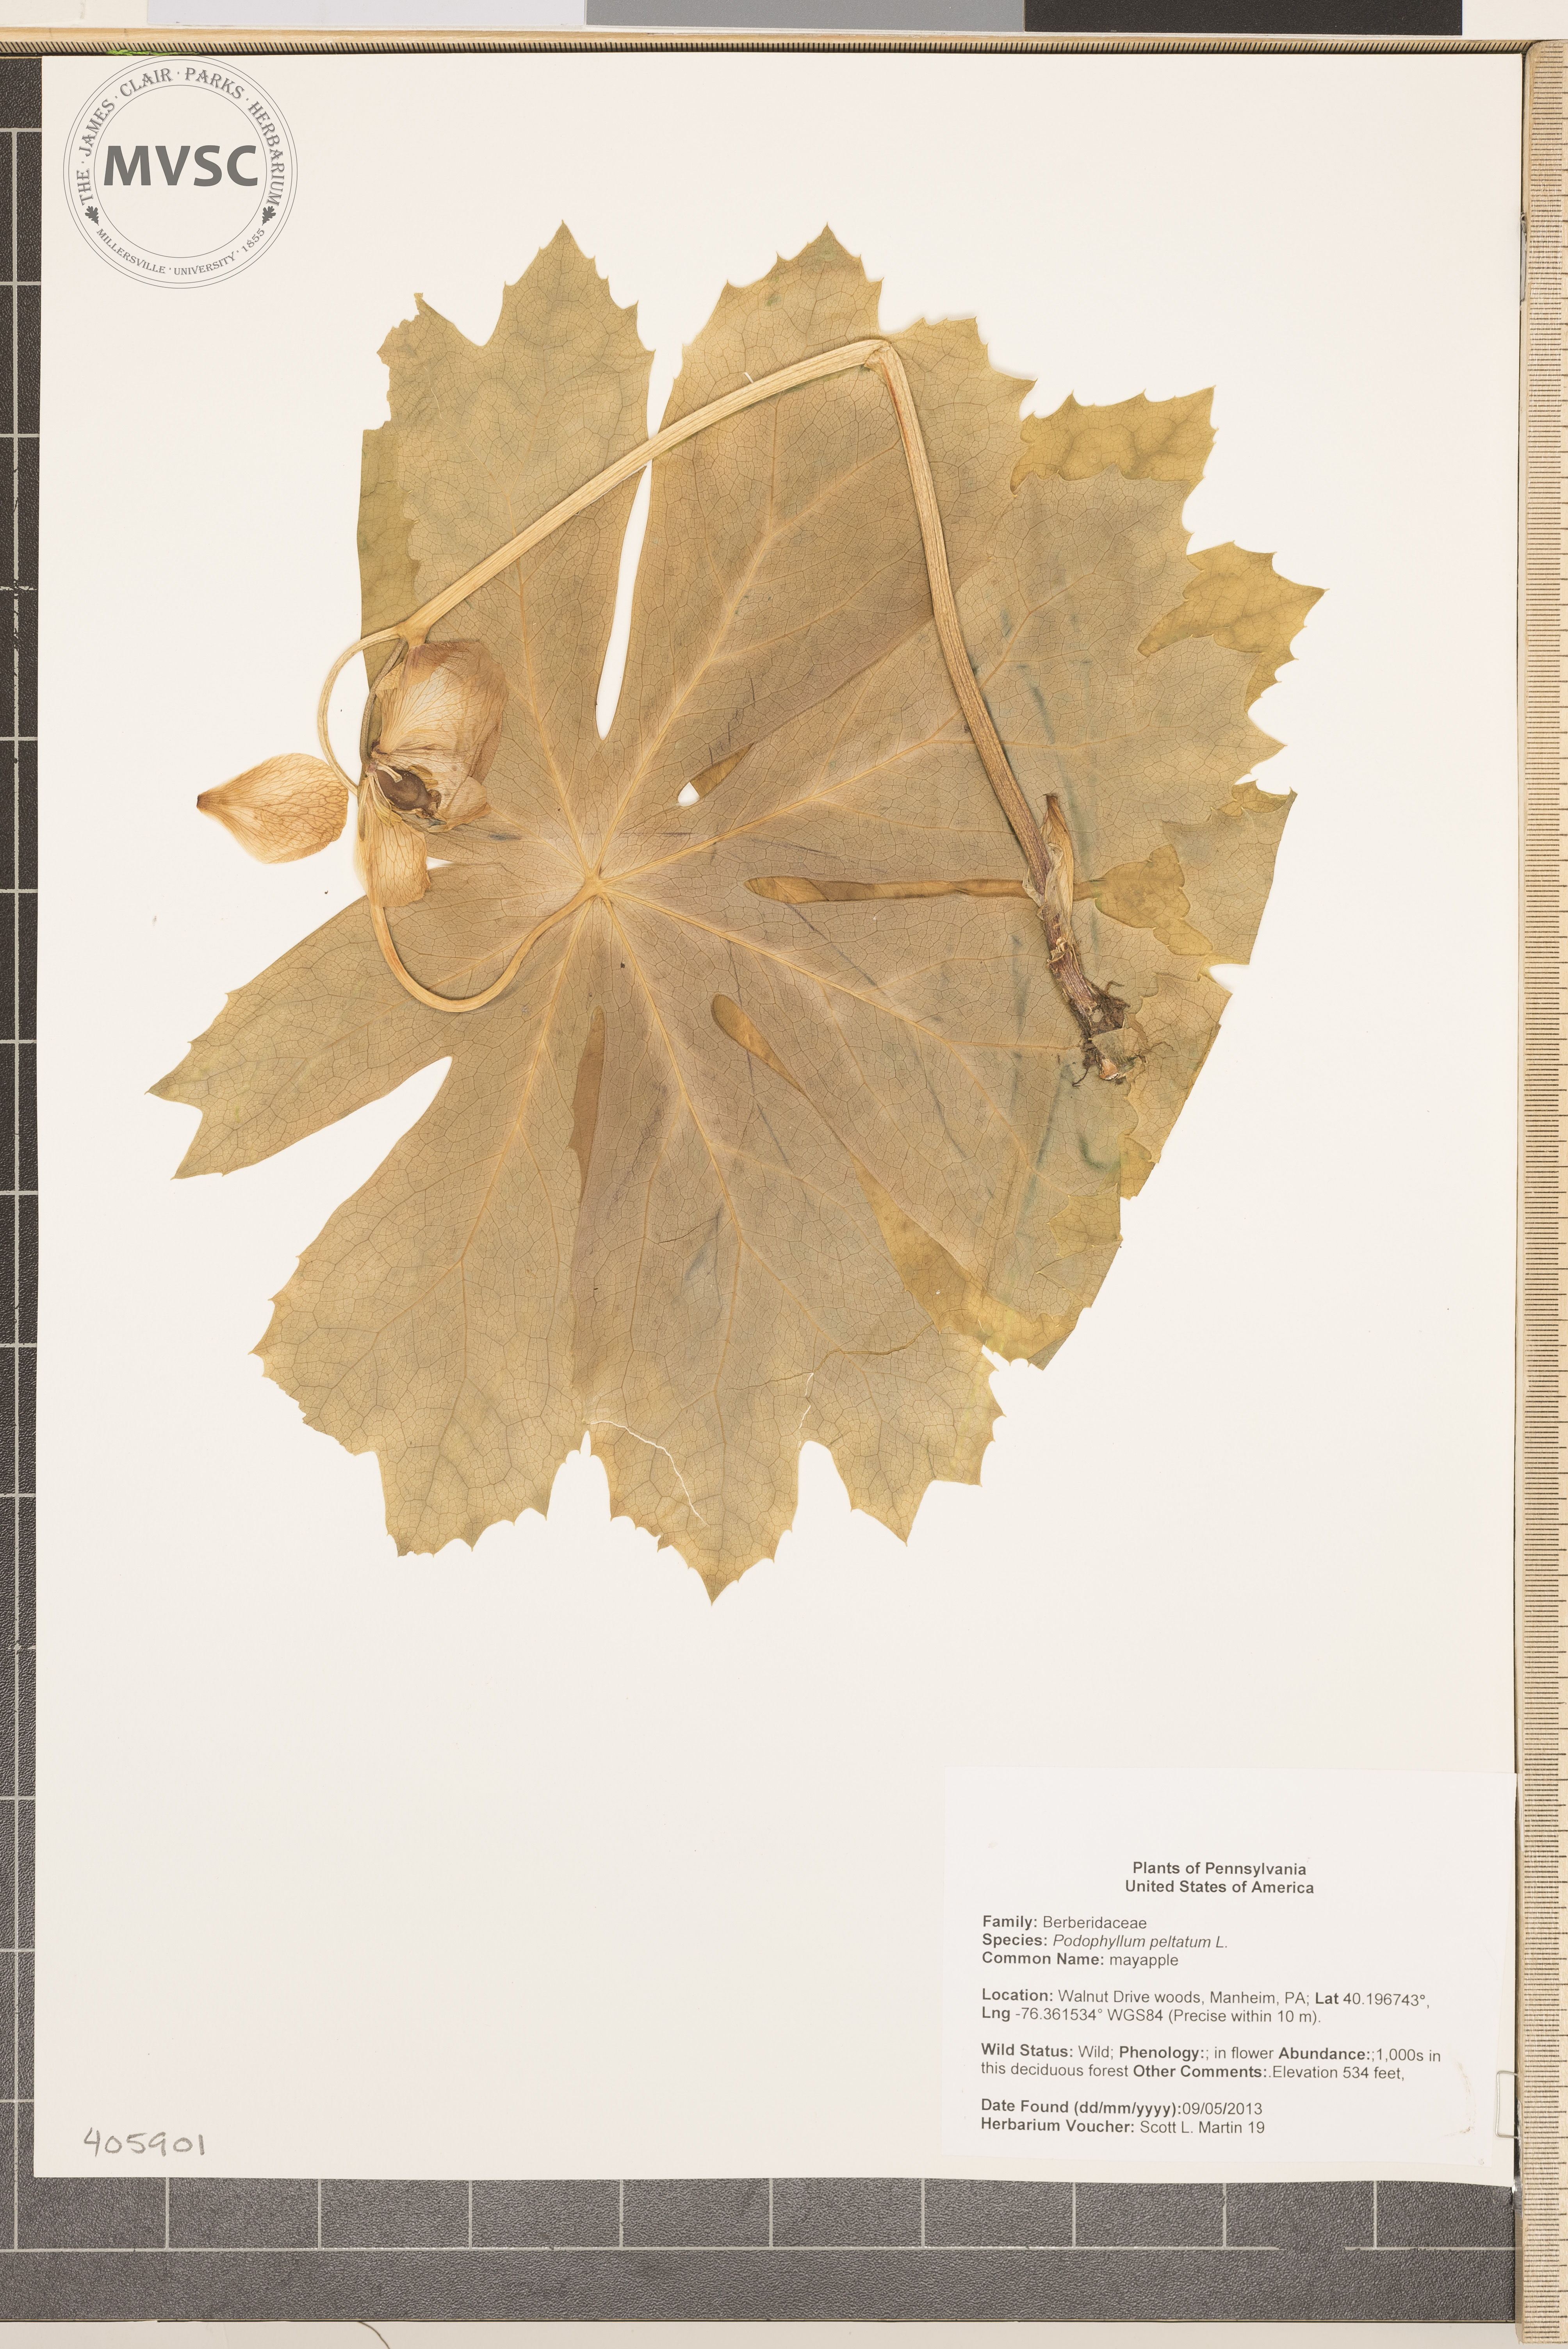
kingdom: Plantae
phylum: Tracheophyta
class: Magnoliopsida
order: Ranunculales
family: Berberidaceae
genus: Podophyllum
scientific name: Podophyllum peltatum
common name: mayapple
